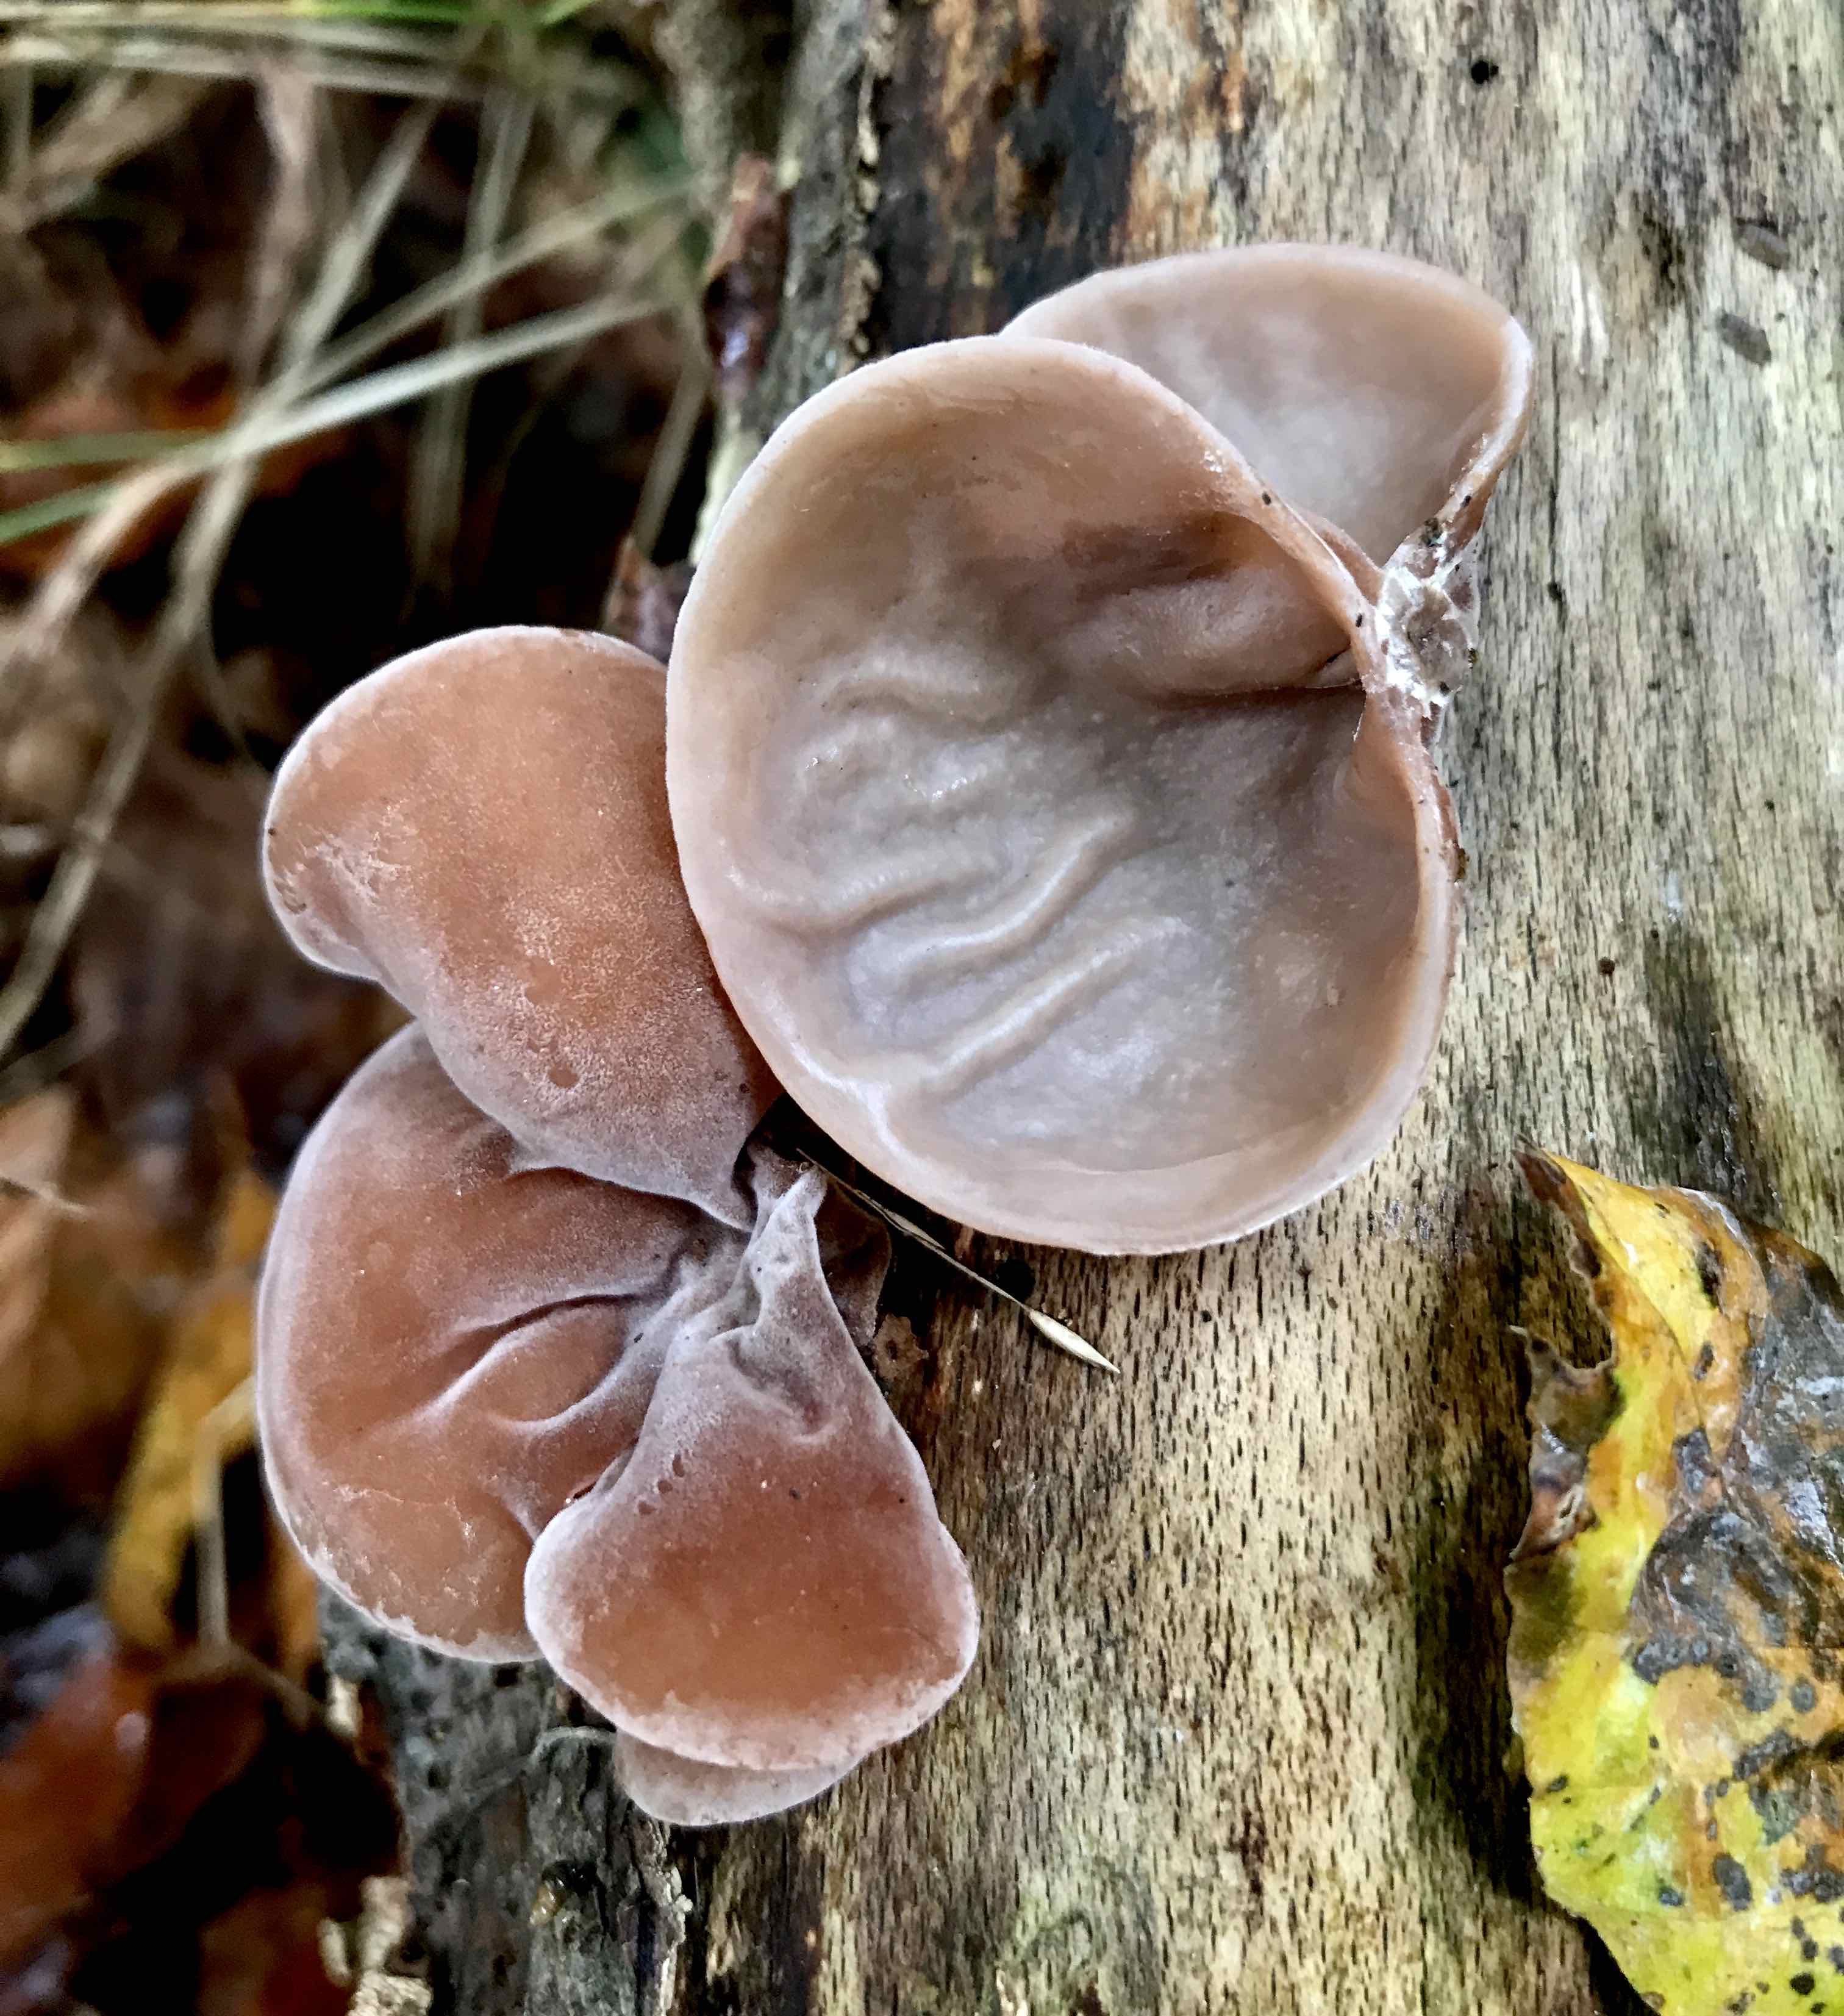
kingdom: Fungi
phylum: Basidiomycota
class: Agaricomycetes
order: Auriculariales
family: Auriculariaceae
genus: Auricularia
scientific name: Auricularia auricula-judae
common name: almindelig judasøre
